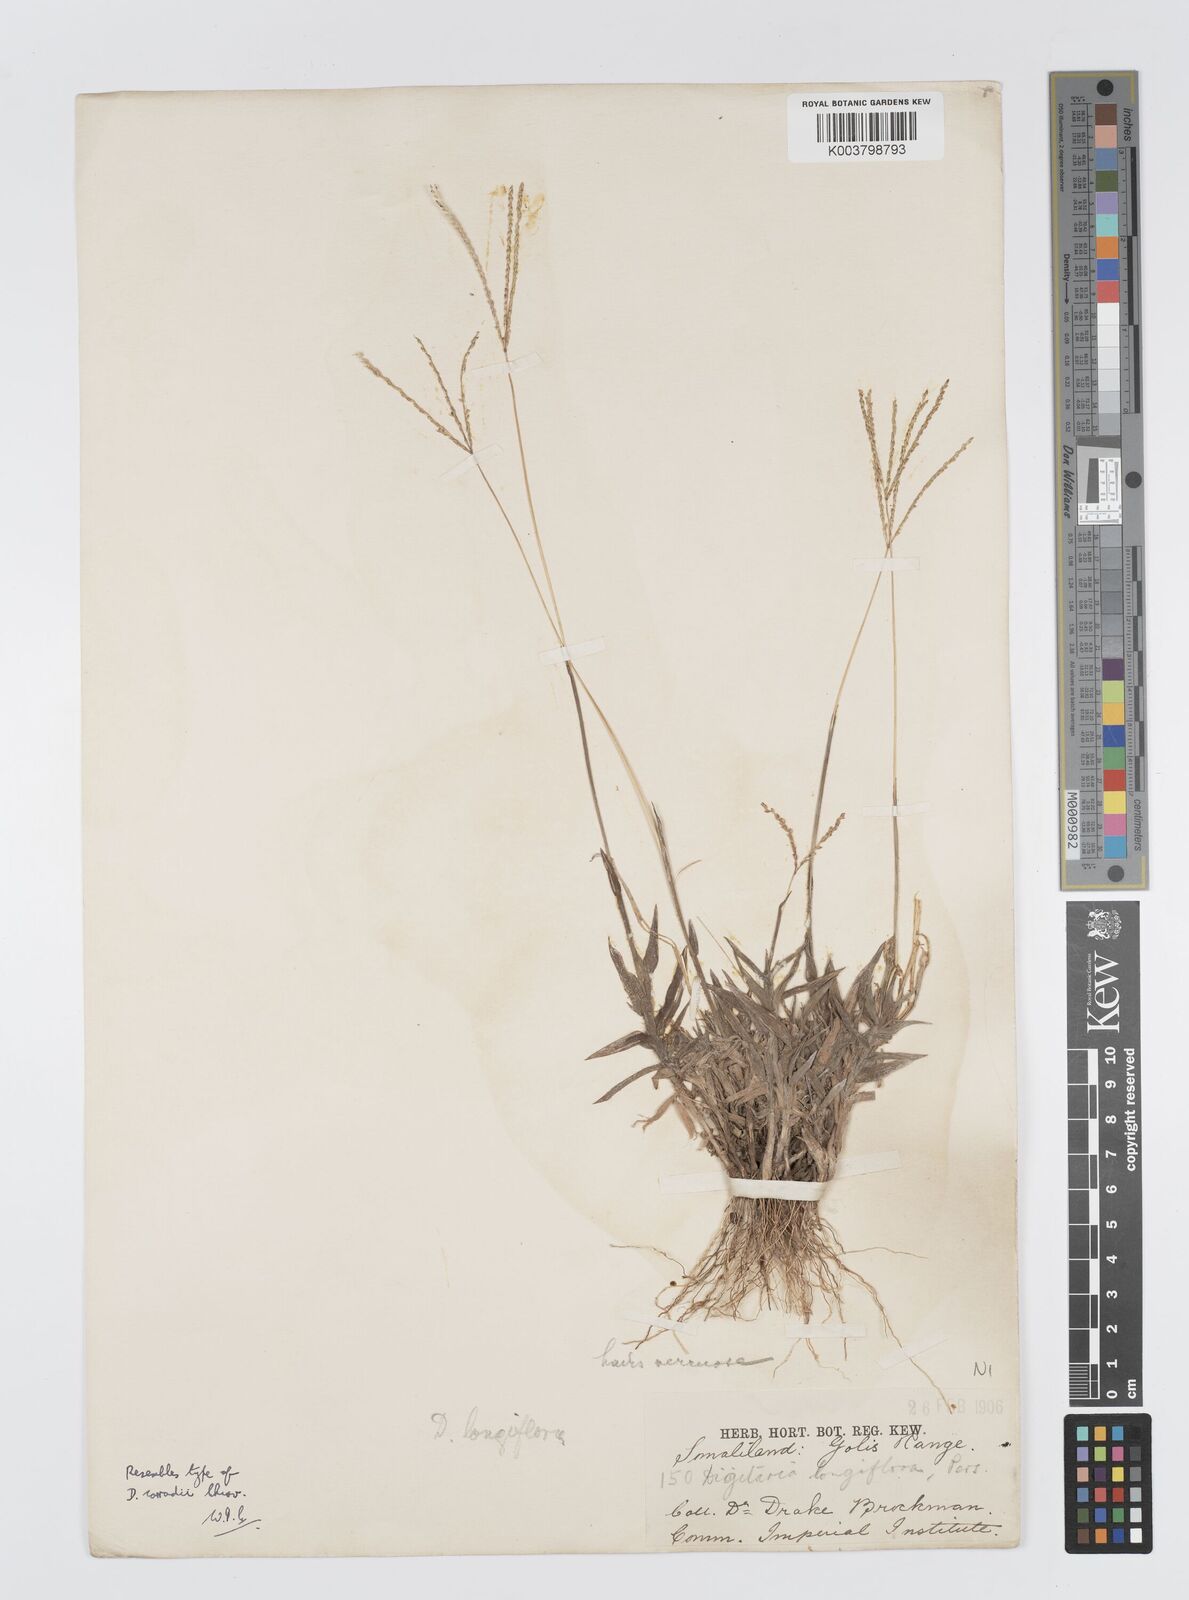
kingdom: Plantae
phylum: Tracheophyta
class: Liliopsida
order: Poales
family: Poaceae
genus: Digitaria
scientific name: Digitaria longiflora
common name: Wire crabgrass
